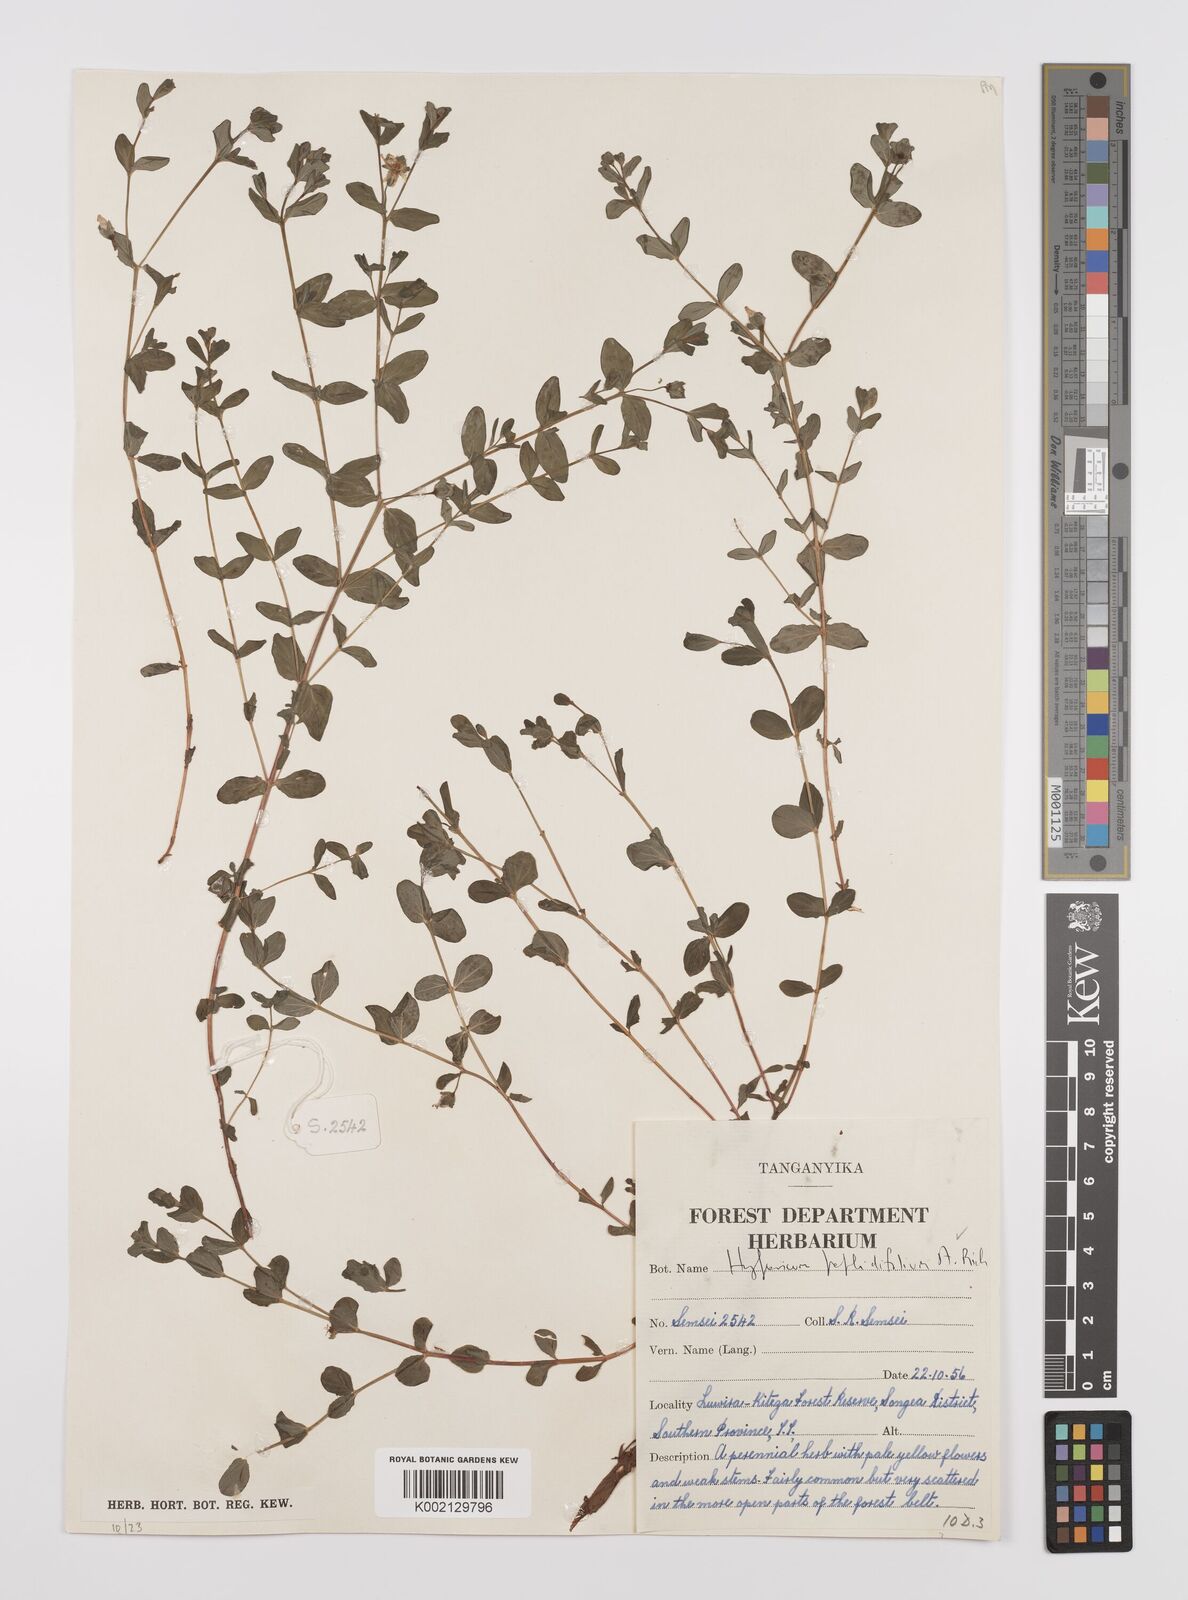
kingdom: Plantae
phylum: Tracheophyta
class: Magnoliopsida
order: Malpighiales
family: Hypericaceae
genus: Hypericum
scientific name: Hypericum peplidifolium
